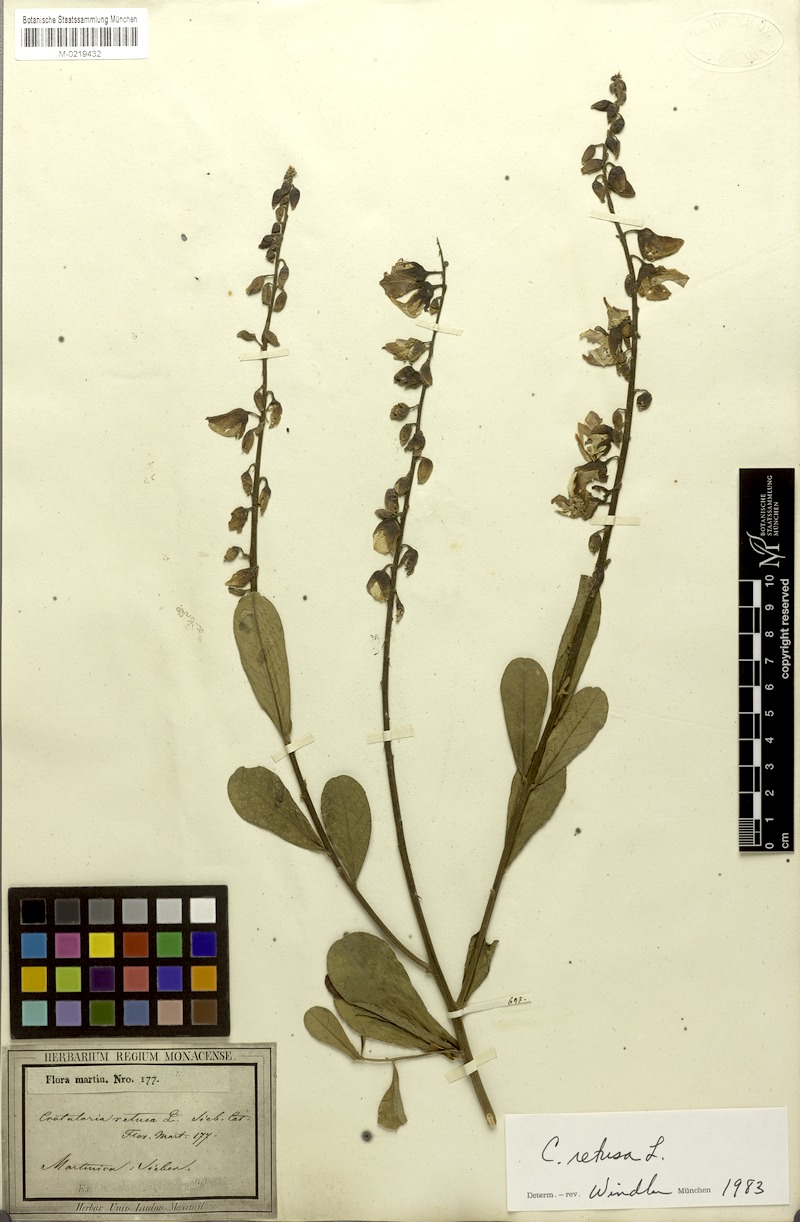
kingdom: Plantae
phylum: Tracheophyta
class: Magnoliopsida
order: Fabales
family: Fabaceae
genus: Crotalaria
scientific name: Crotalaria retusa
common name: Rattleweed
